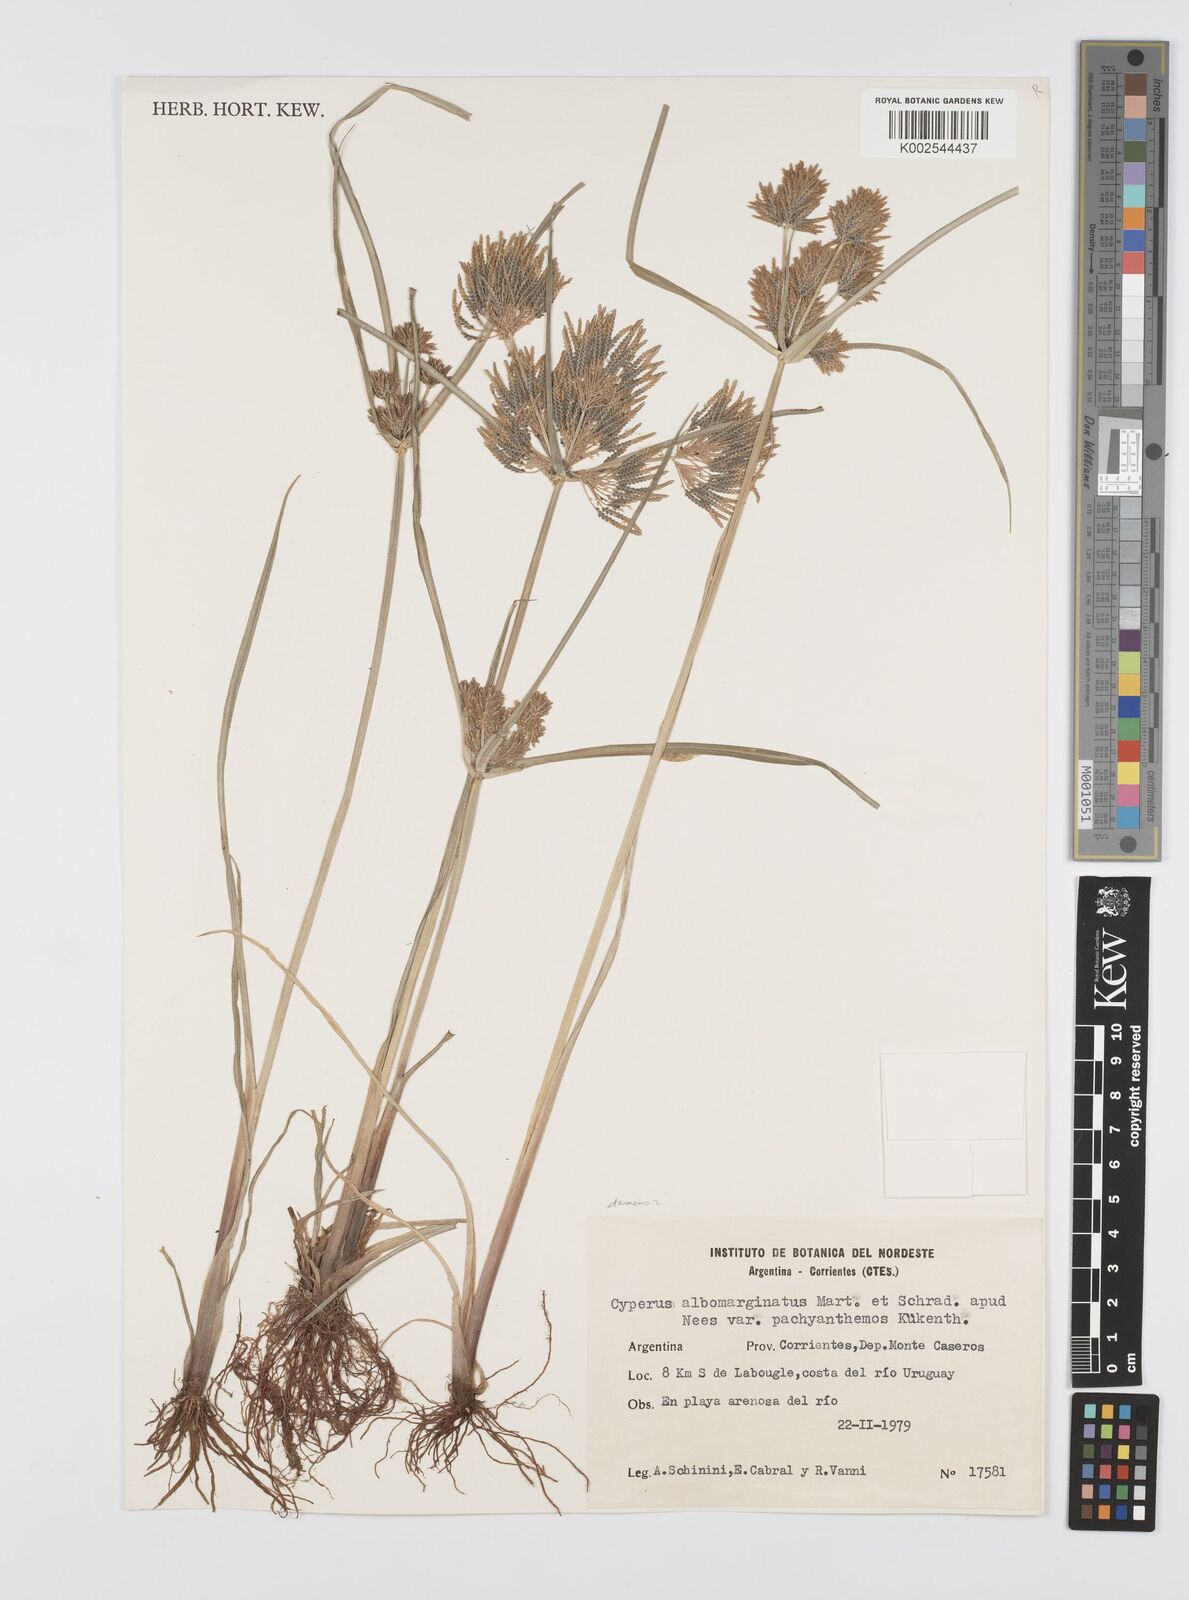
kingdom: Plantae
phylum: Tracheophyta
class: Liliopsida
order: Poales
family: Cyperaceae
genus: Cyperus
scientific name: Cyperus macrostachyos
